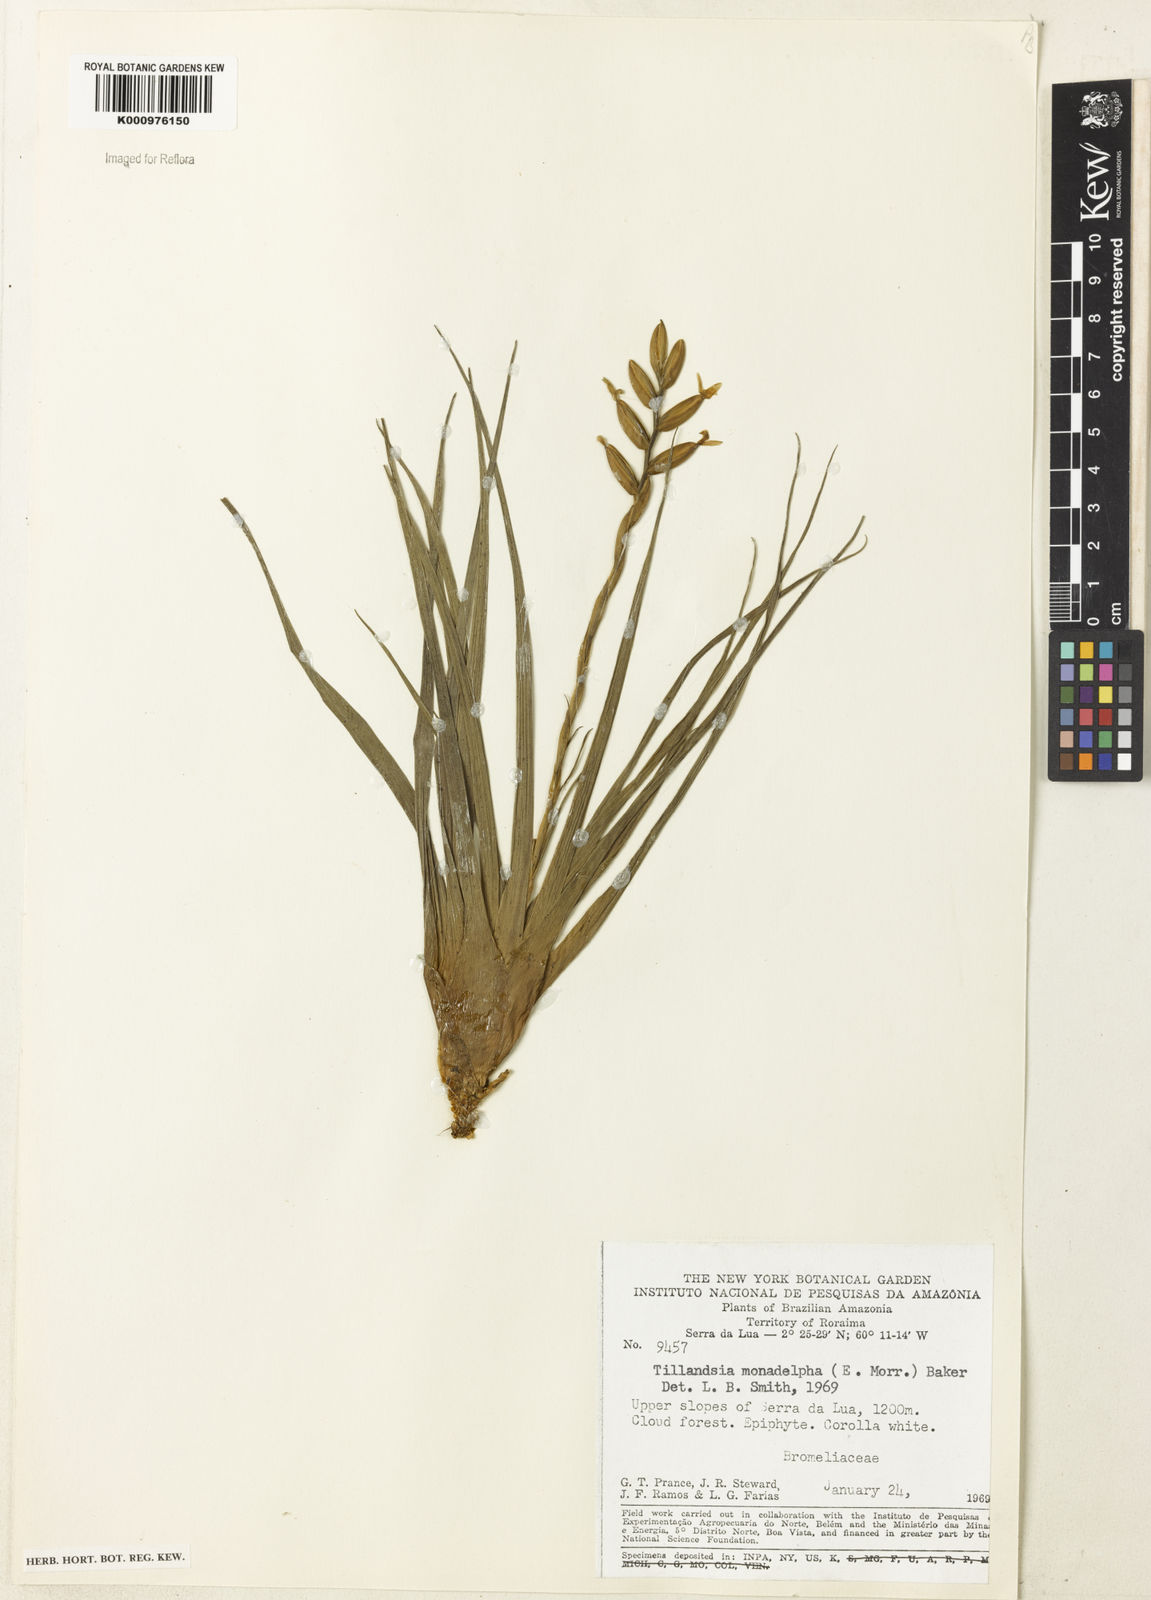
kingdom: Plantae
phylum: Tracheophyta
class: Liliopsida
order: Poales
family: Bromeliaceae
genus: Lemeltonia
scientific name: Lemeltonia monadelpha
